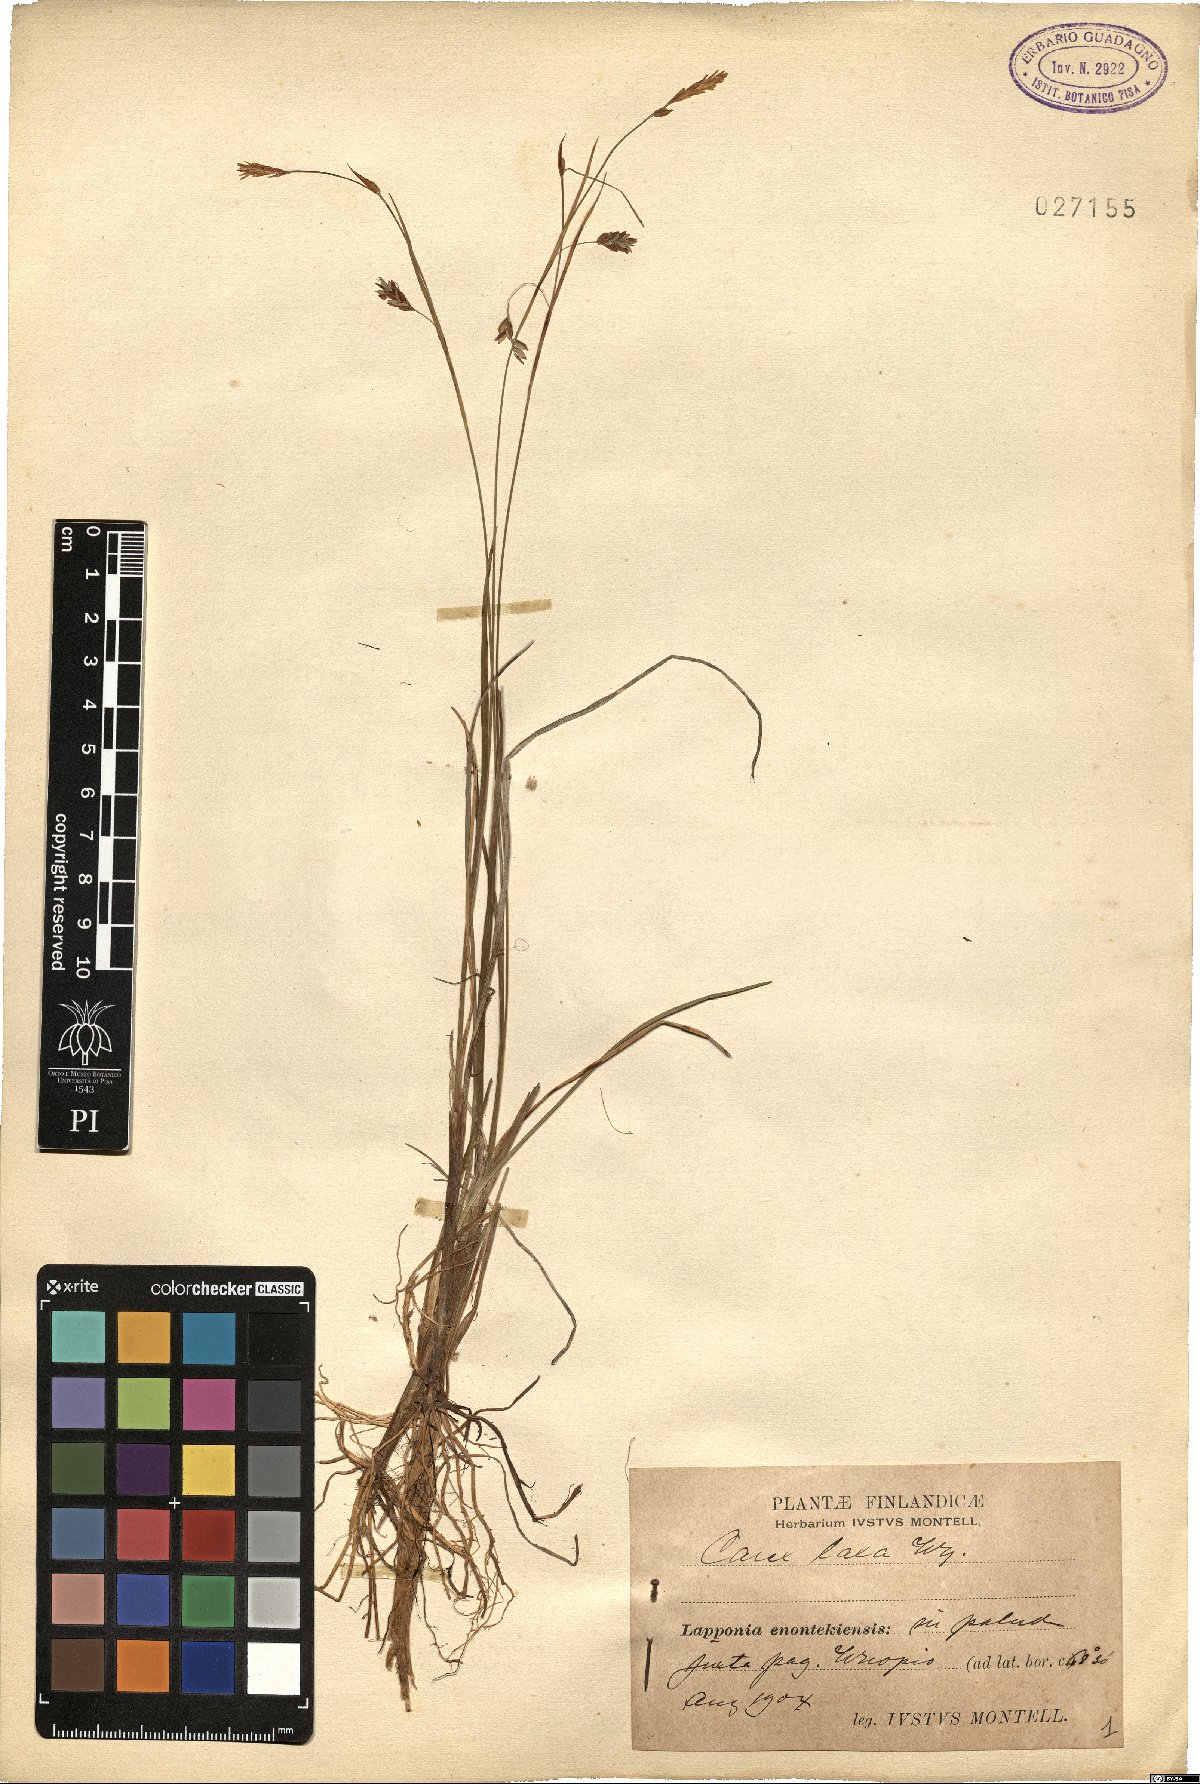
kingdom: Plantae
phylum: Tracheophyta
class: Liliopsida
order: Poales
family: Cyperaceae
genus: Carex
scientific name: Carex laxa
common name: Weak sedge
